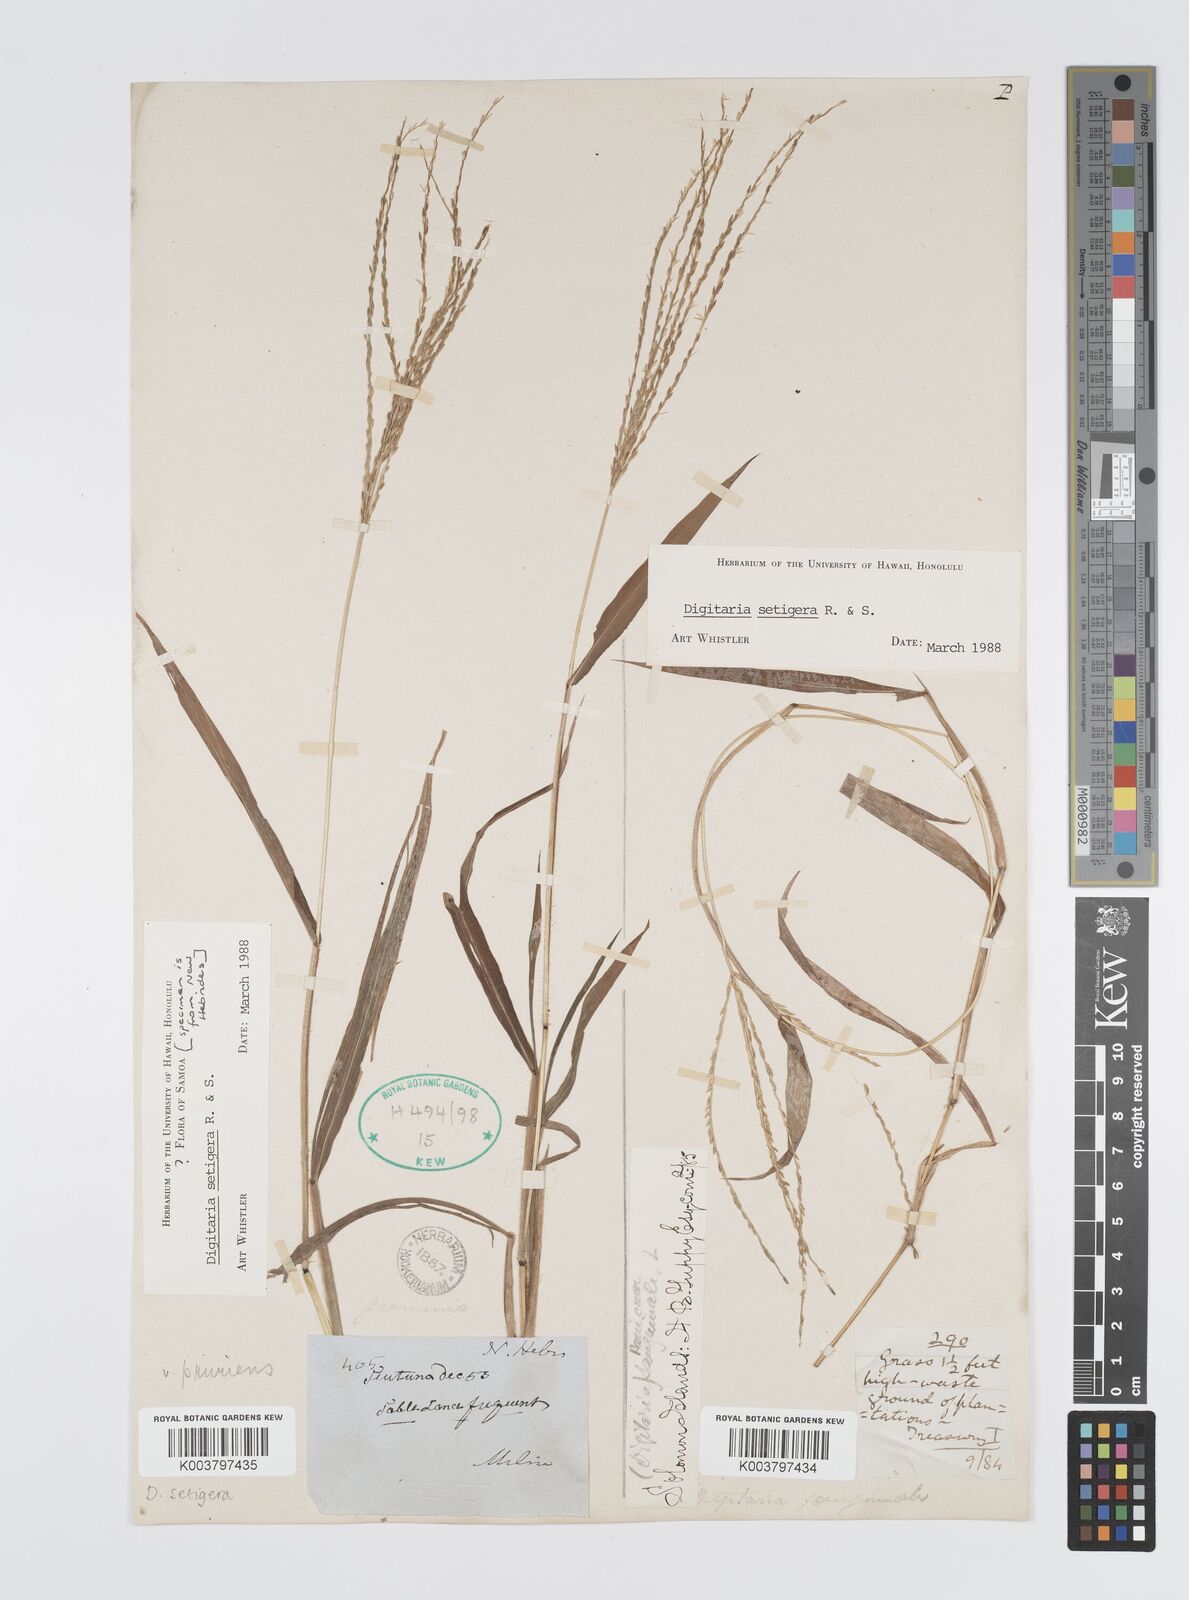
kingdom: Plantae
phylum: Tracheophyta
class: Liliopsida
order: Poales
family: Poaceae
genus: Digitaria
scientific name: Digitaria setigera
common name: East indian crabgrass
